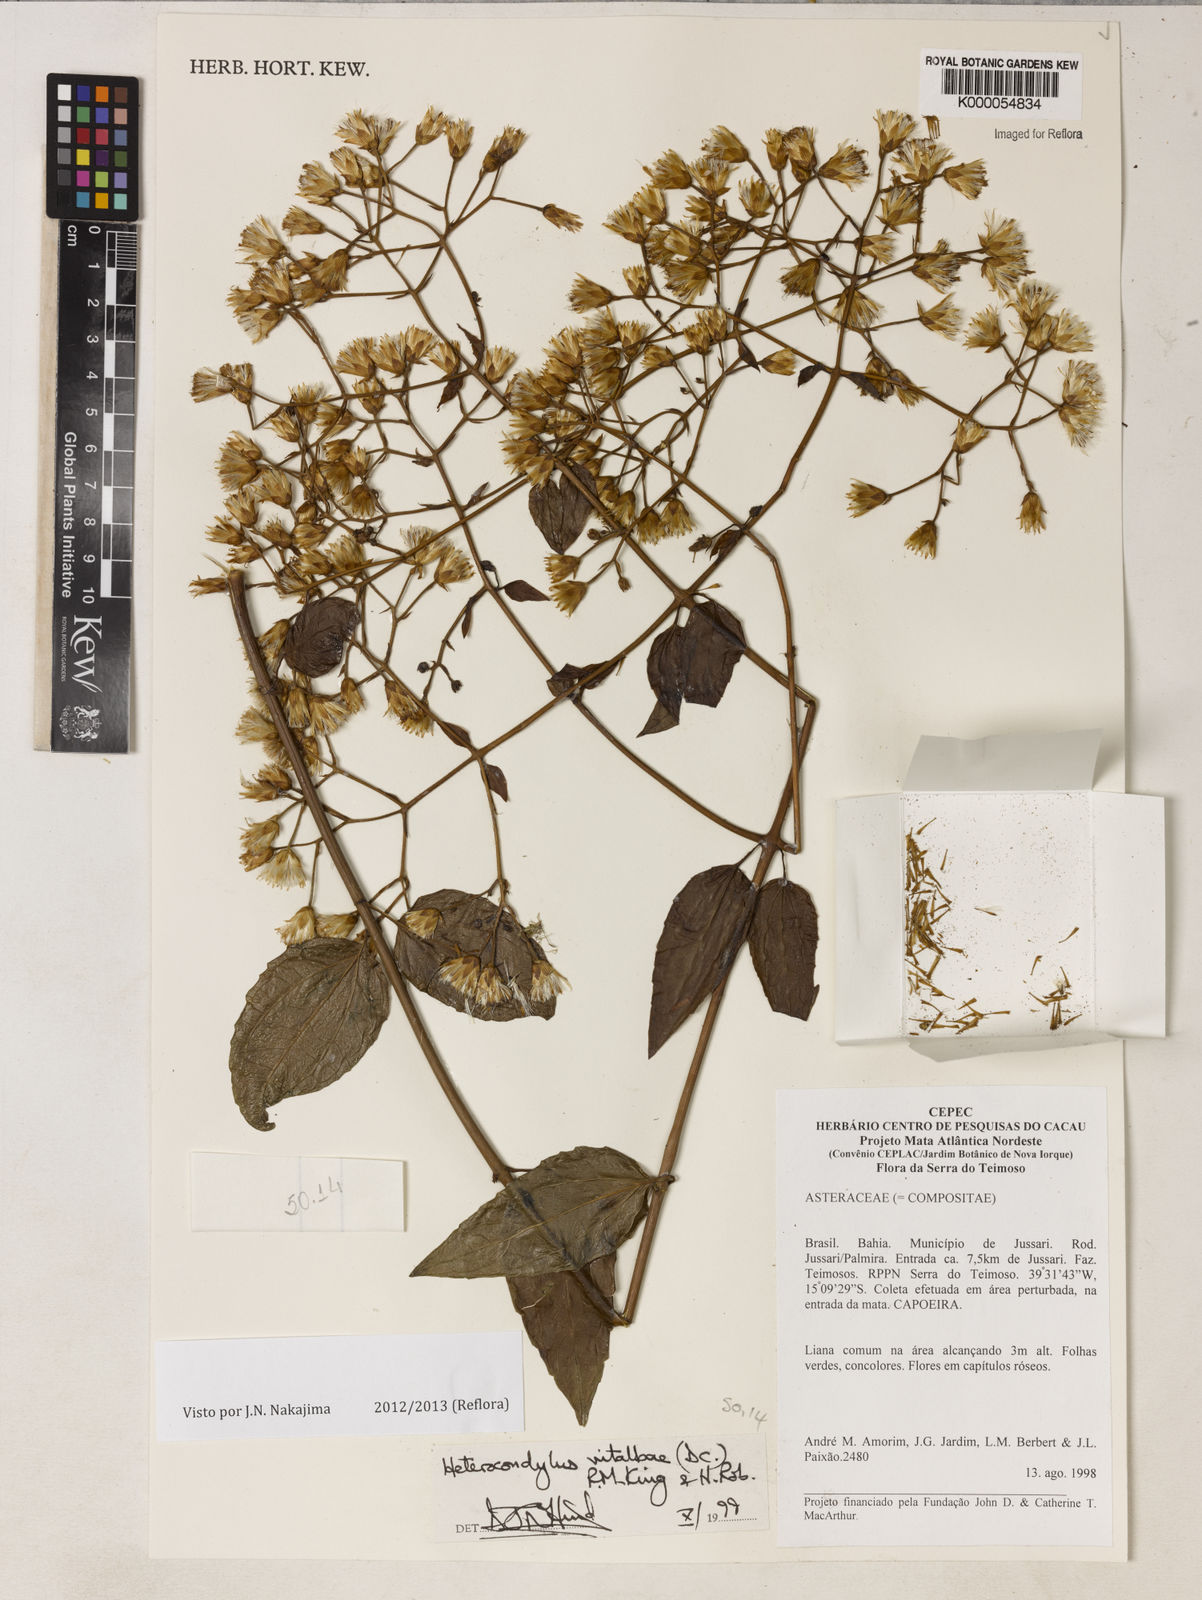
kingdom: Plantae
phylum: Tracheophyta
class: Magnoliopsida
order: Asterales
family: Asteraceae
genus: Heterocondylus
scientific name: Heterocondylus vitalbae
